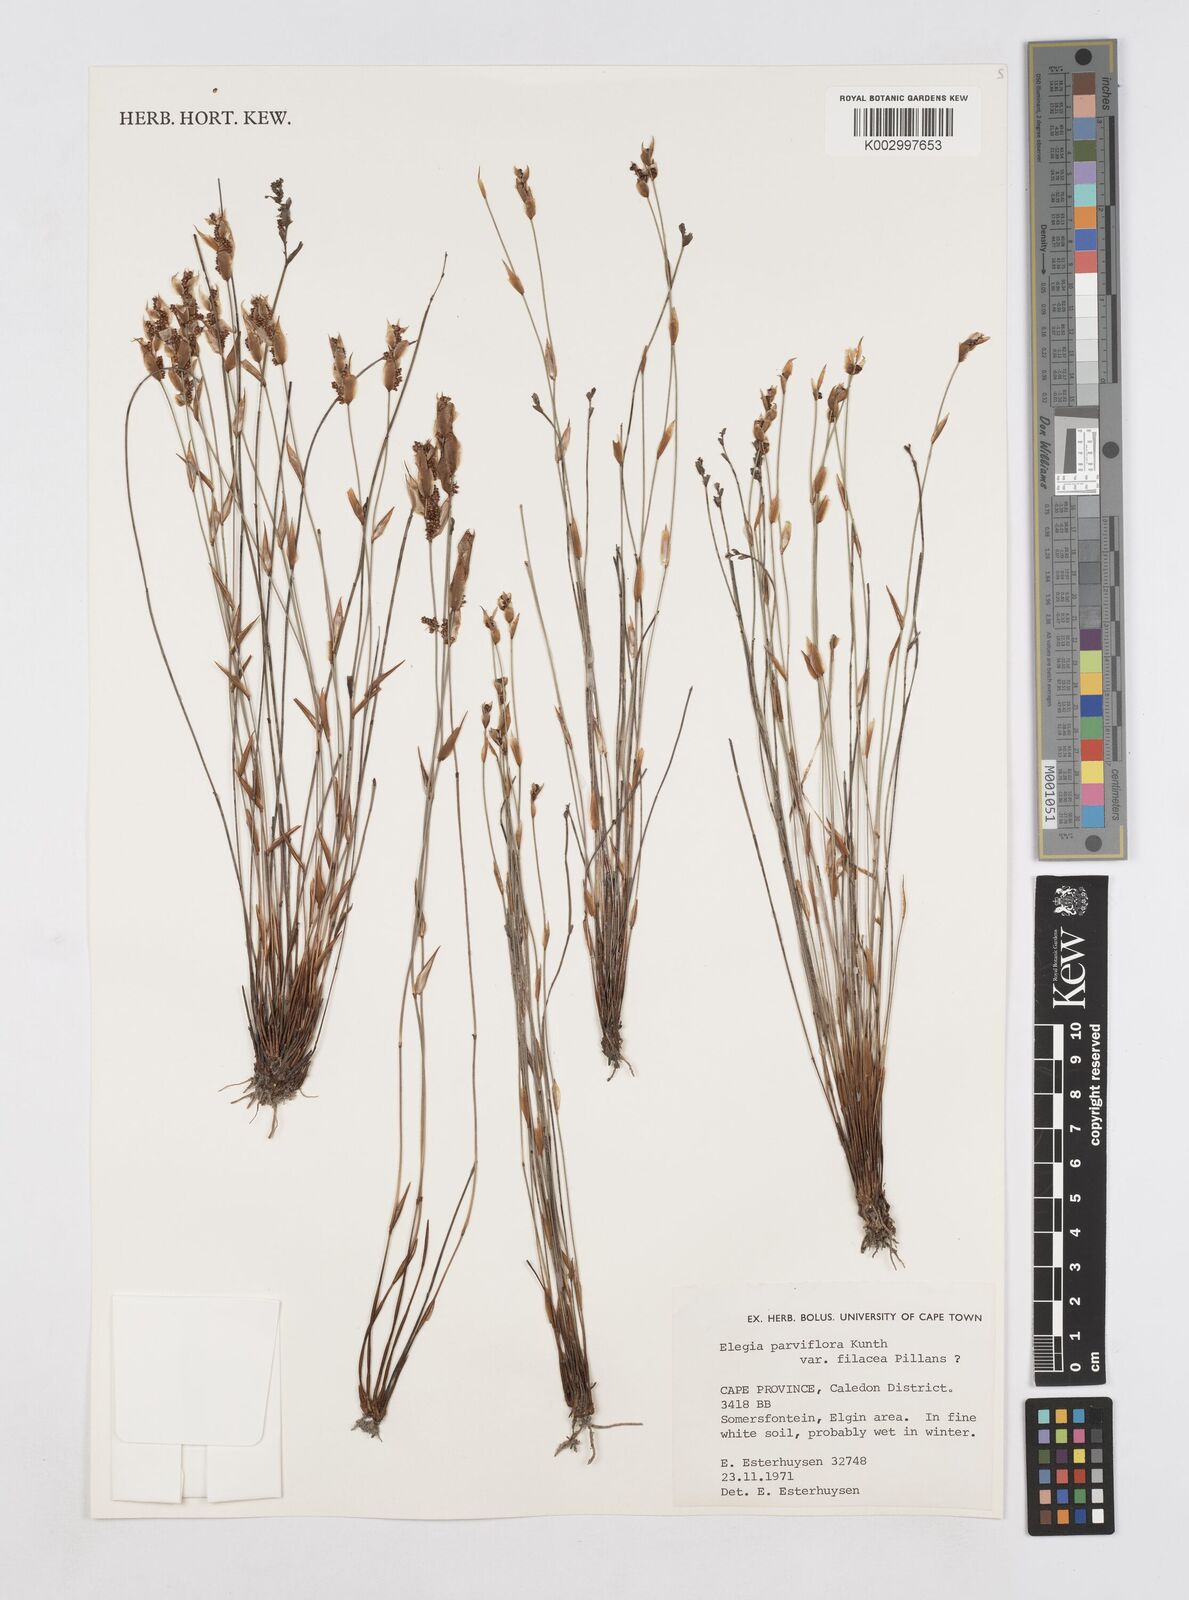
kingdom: Plantae
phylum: Tracheophyta
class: Liliopsida
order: Poales
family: Restionaceae
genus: Cannomois
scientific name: Cannomois parviflora
